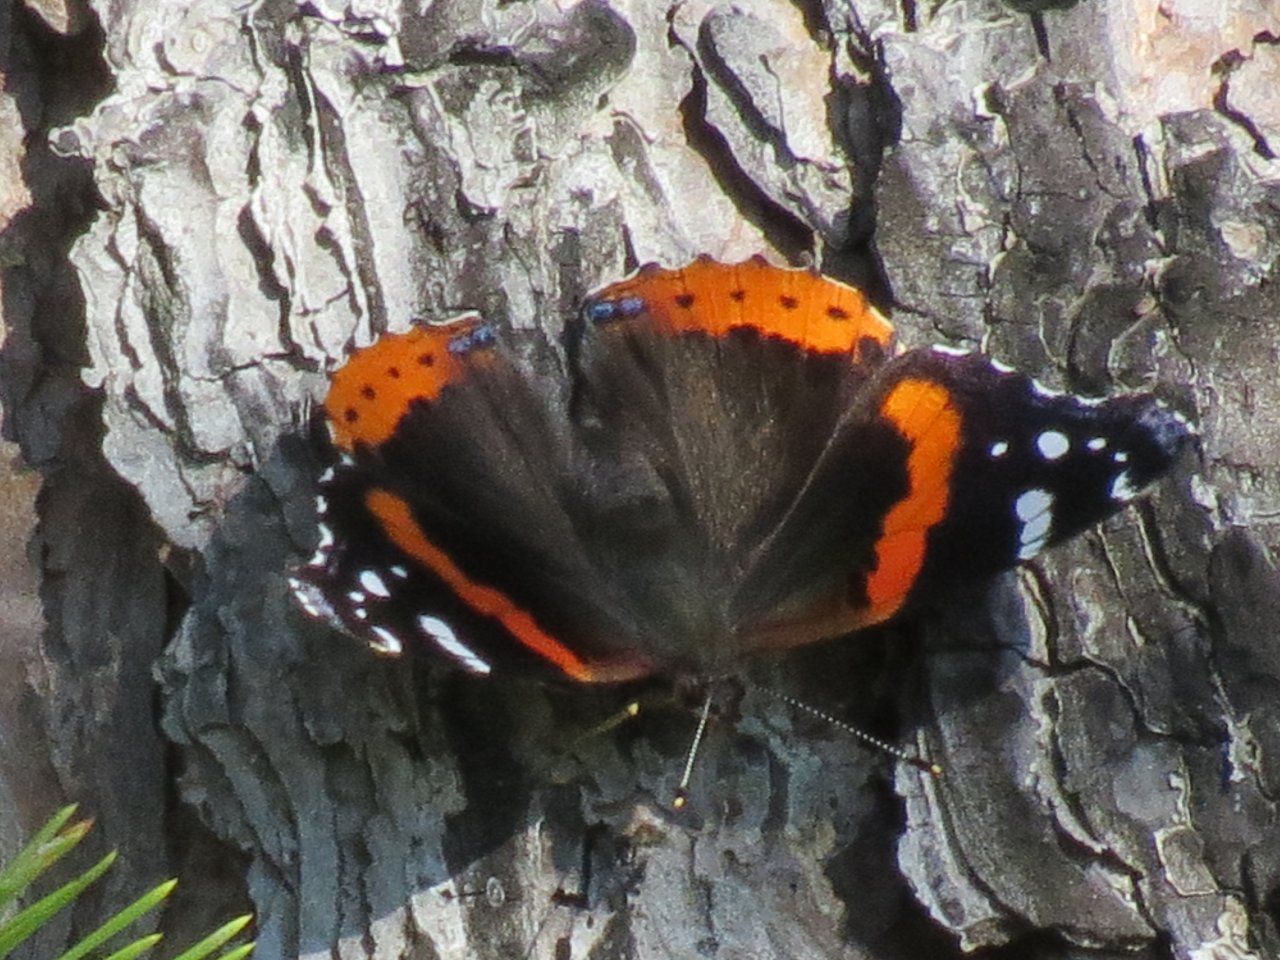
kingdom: Animalia
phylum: Arthropoda
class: Insecta
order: Lepidoptera
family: Nymphalidae
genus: Vanessa
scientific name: Vanessa atalanta
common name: Red Admiral
